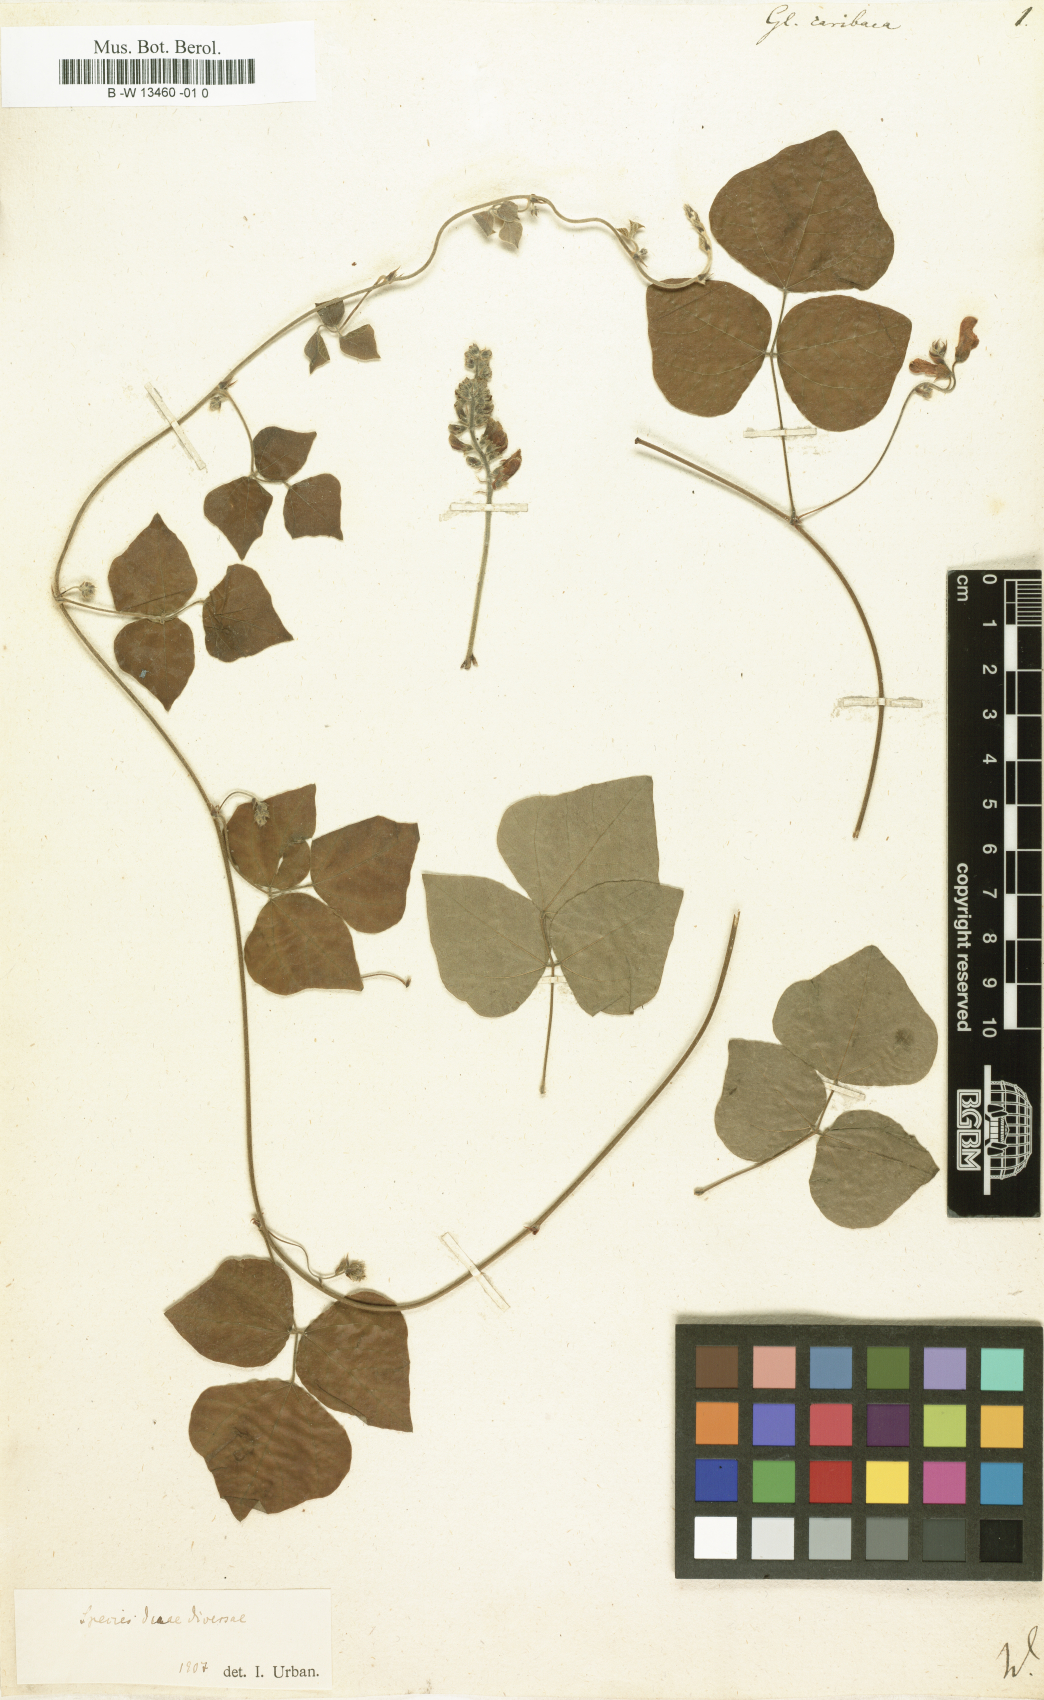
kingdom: Plantae
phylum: Tracheophyta
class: Magnoliopsida
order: Fabales
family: Fabaceae
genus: Rhynchosia
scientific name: Rhynchosia caribaea
